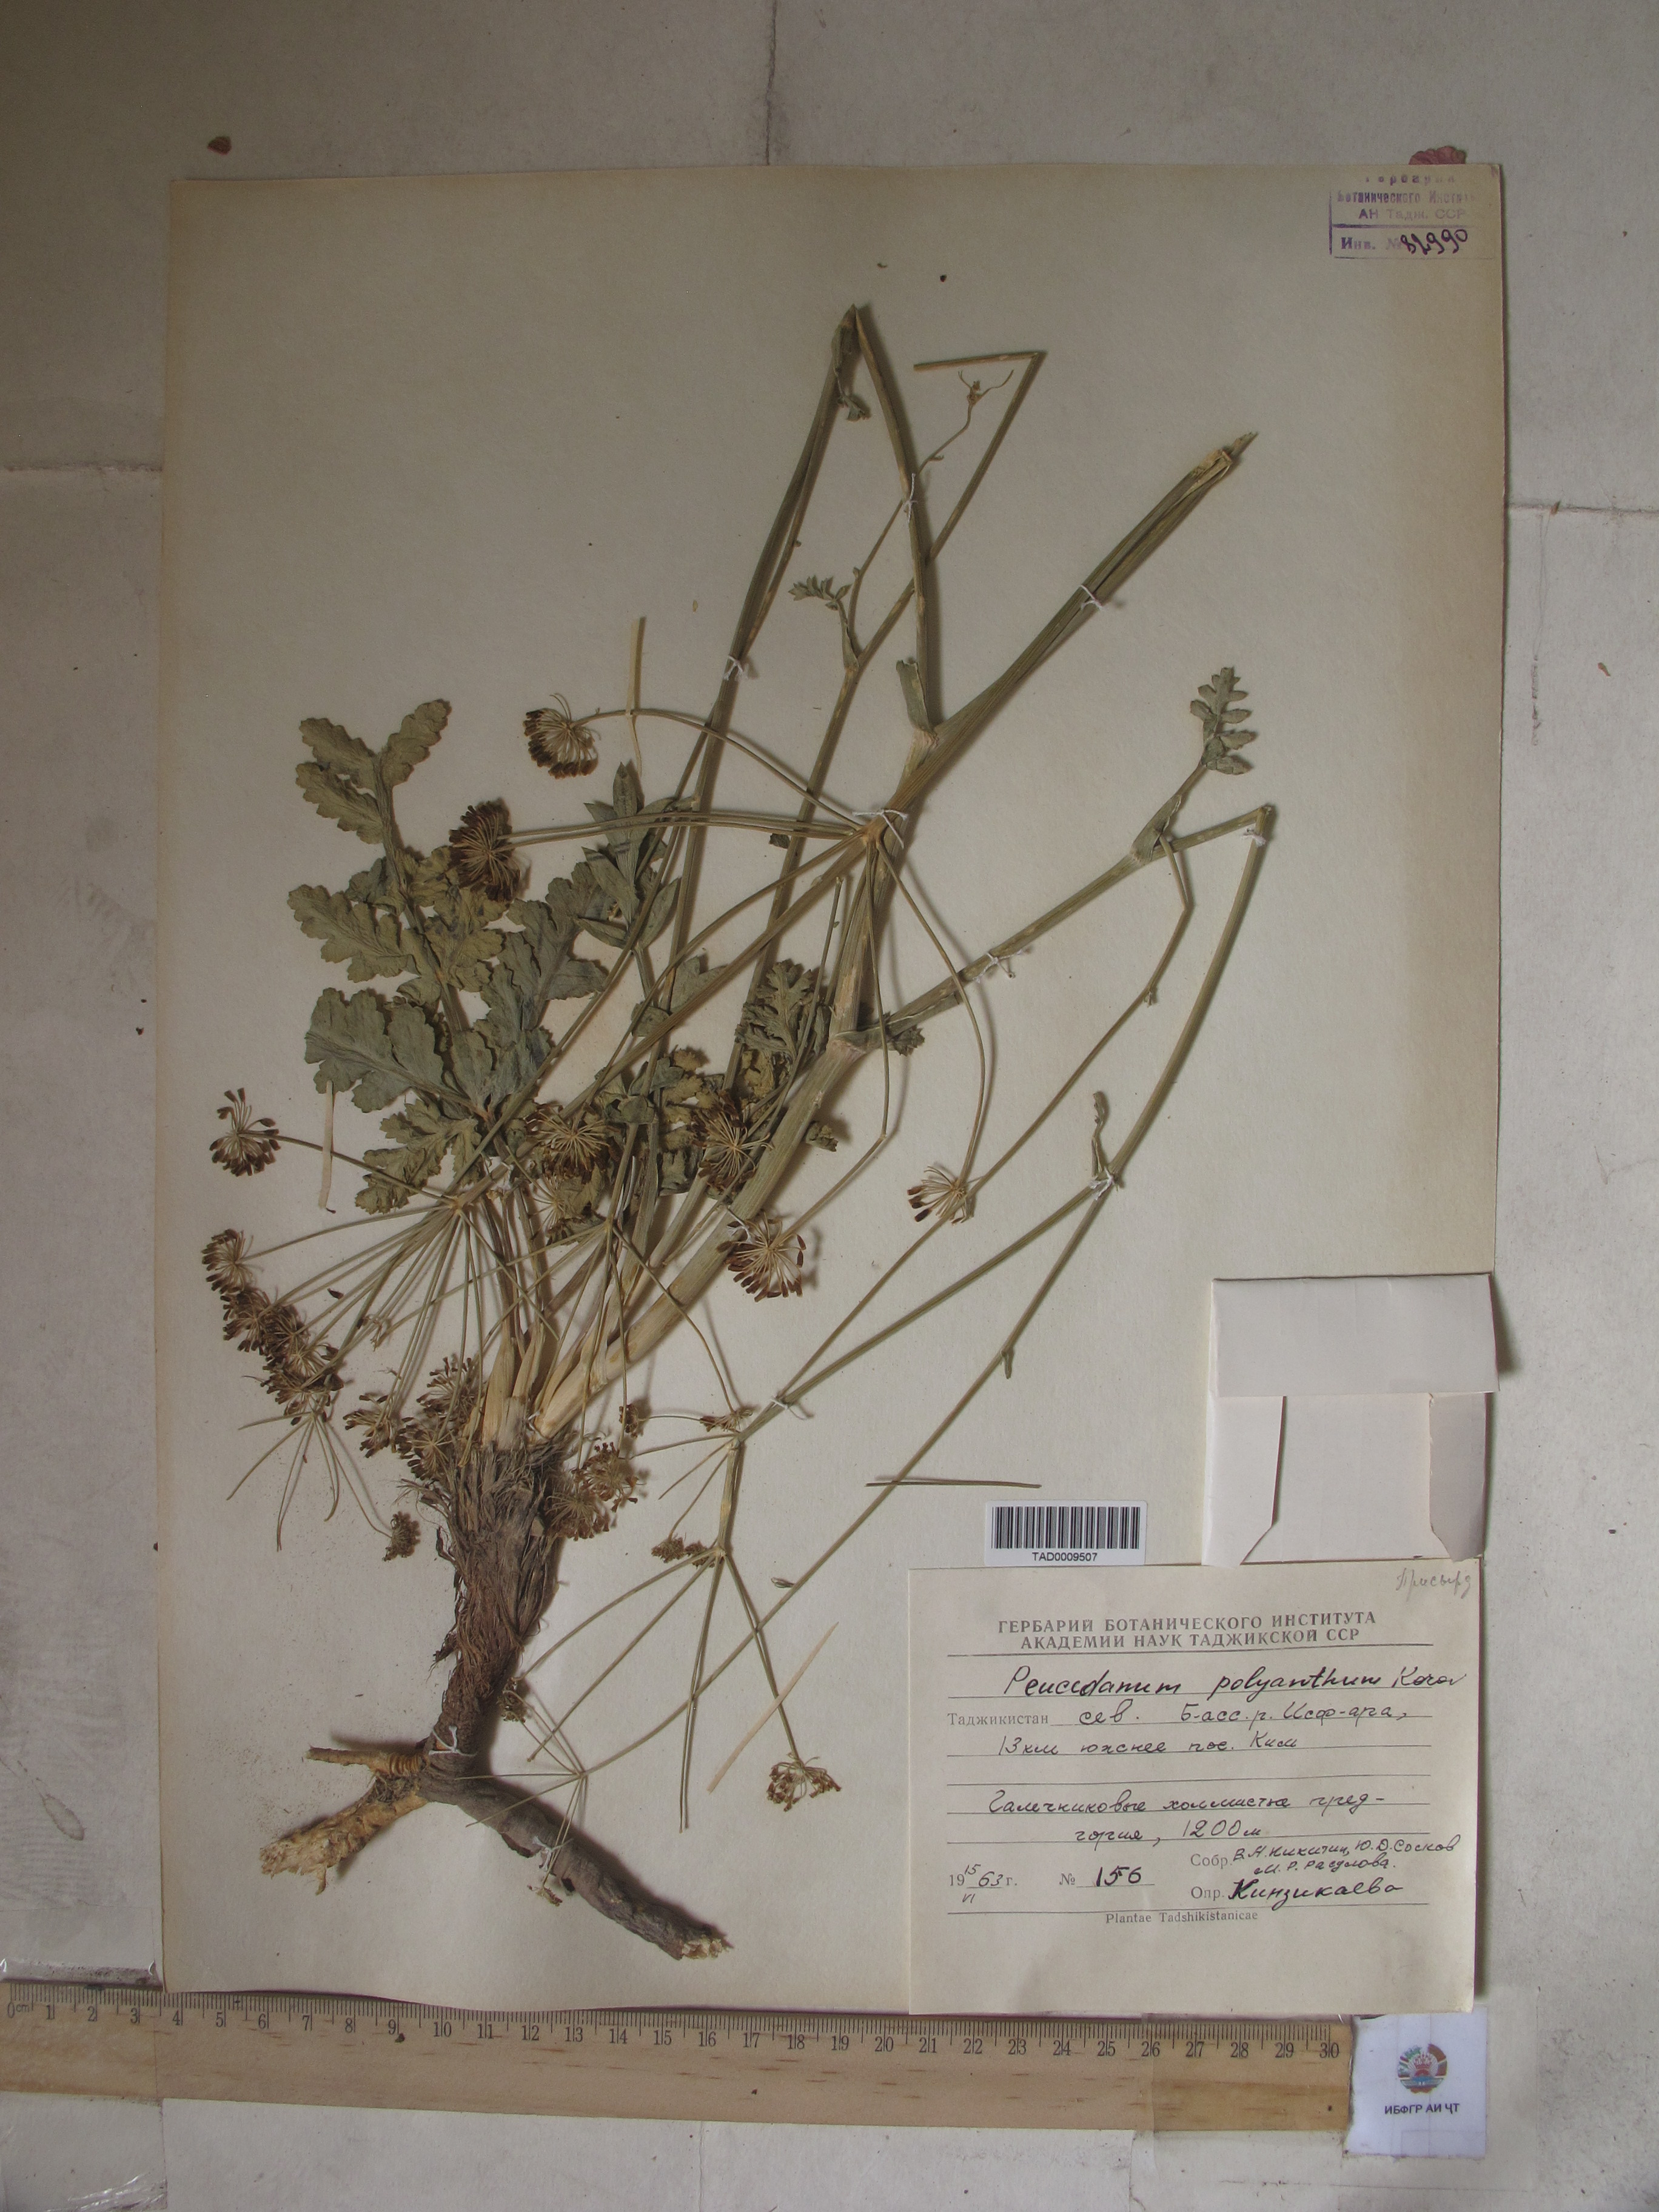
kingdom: Plantae
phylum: Tracheophyta
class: Magnoliopsida
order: Apiales
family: Apiaceae
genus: Fergania
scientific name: Fergania polyantha
